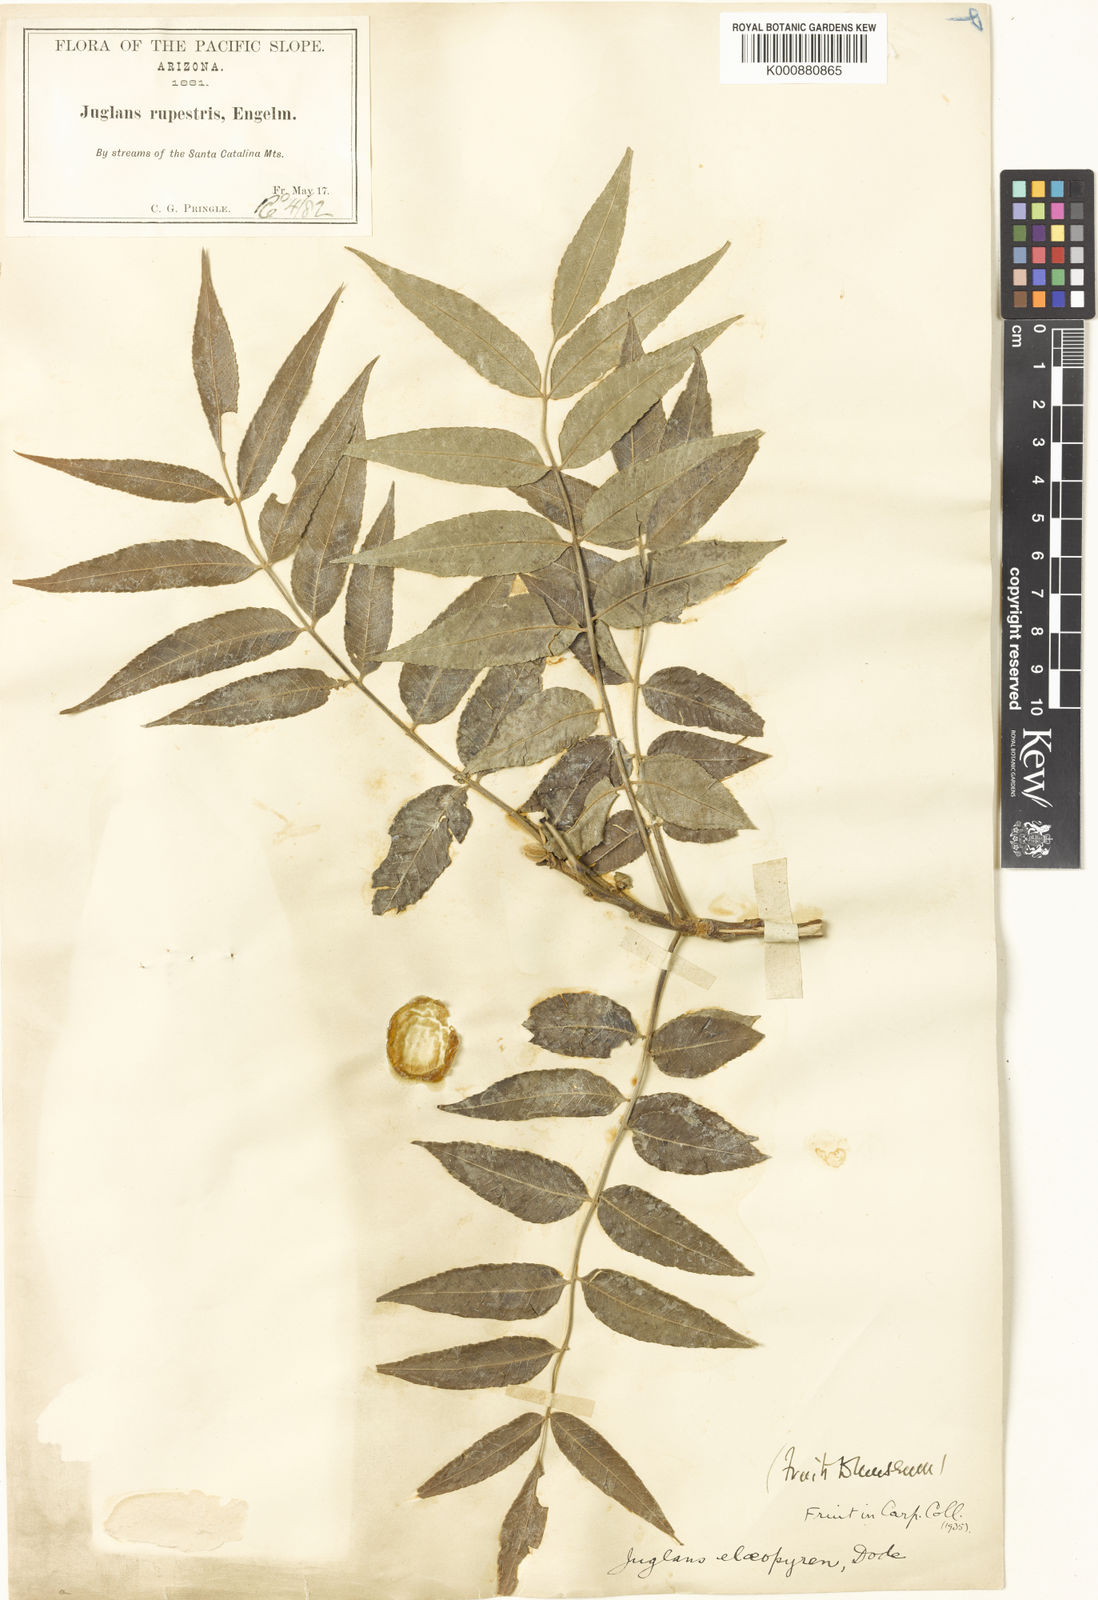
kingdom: Plantae
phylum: Tracheophyta
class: Magnoliopsida
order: Fagales
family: Juglandaceae
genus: Juglans
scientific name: Juglans major
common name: Arizona walnut
